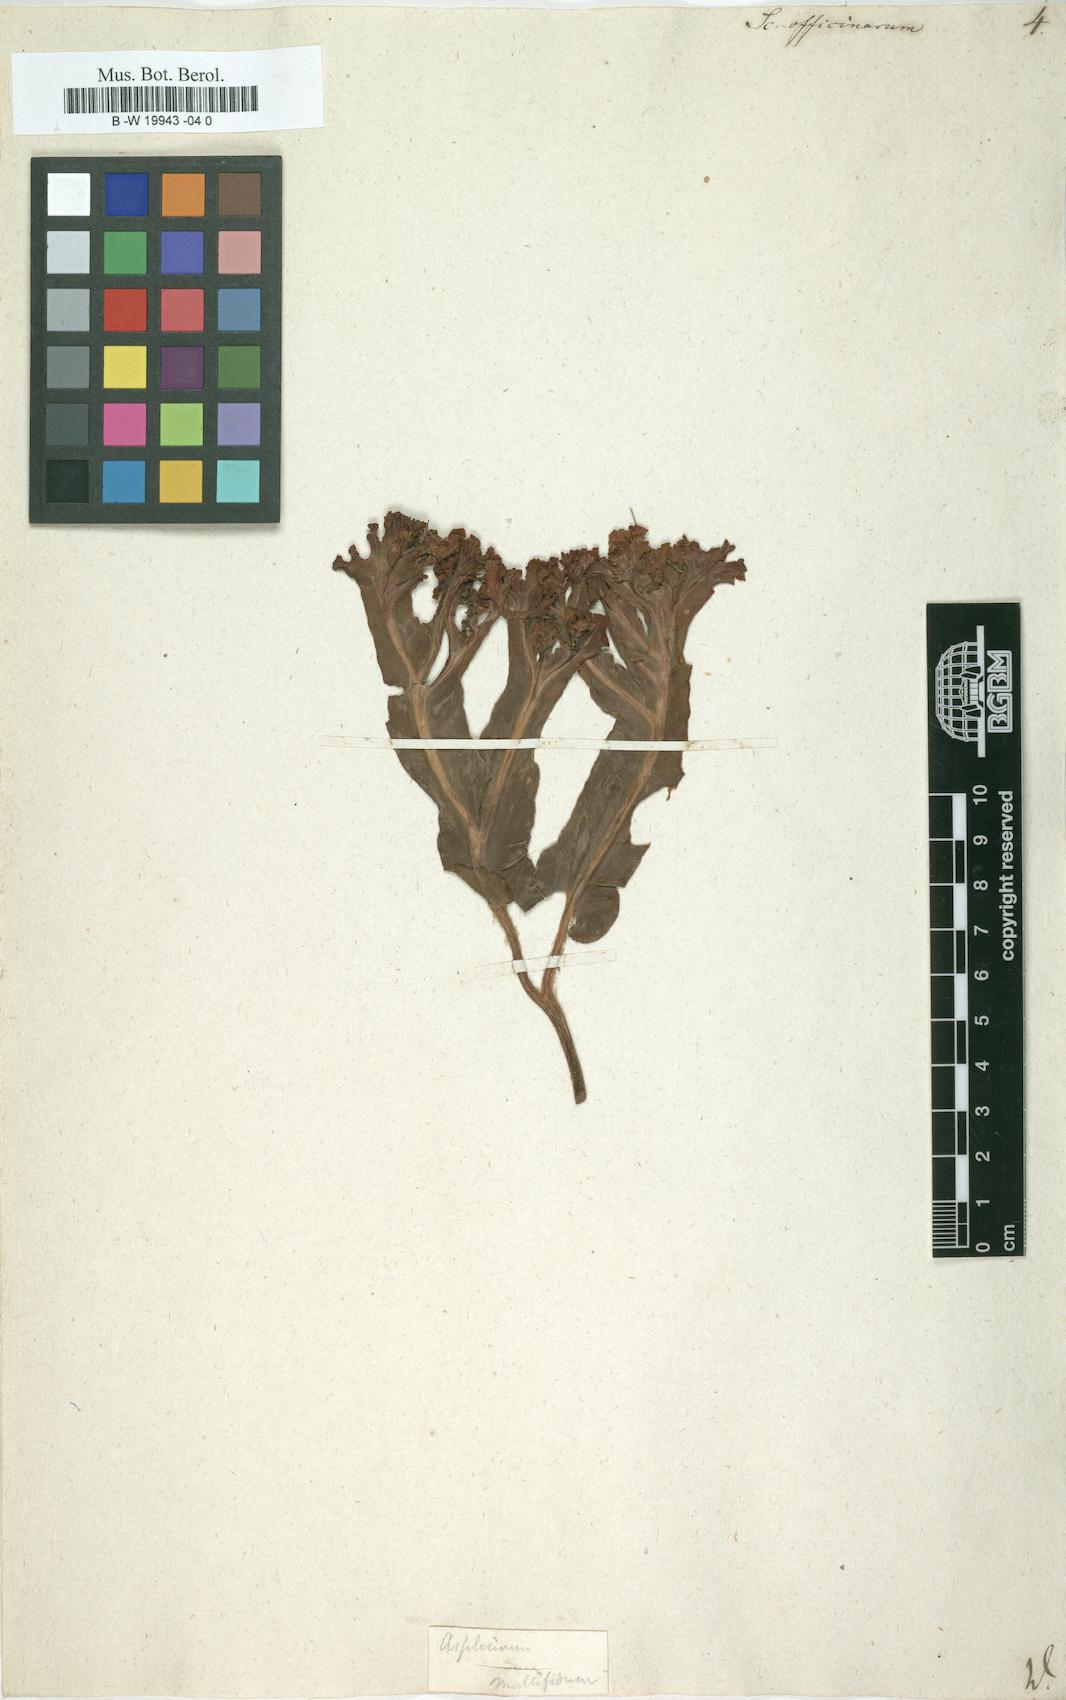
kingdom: Plantae
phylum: Tracheophyta
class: Polypodiopsida
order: Polypodiales
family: Aspleniaceae
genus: Asplenium
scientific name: Asplenium scolopendrium
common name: Hart's-tongue fern
